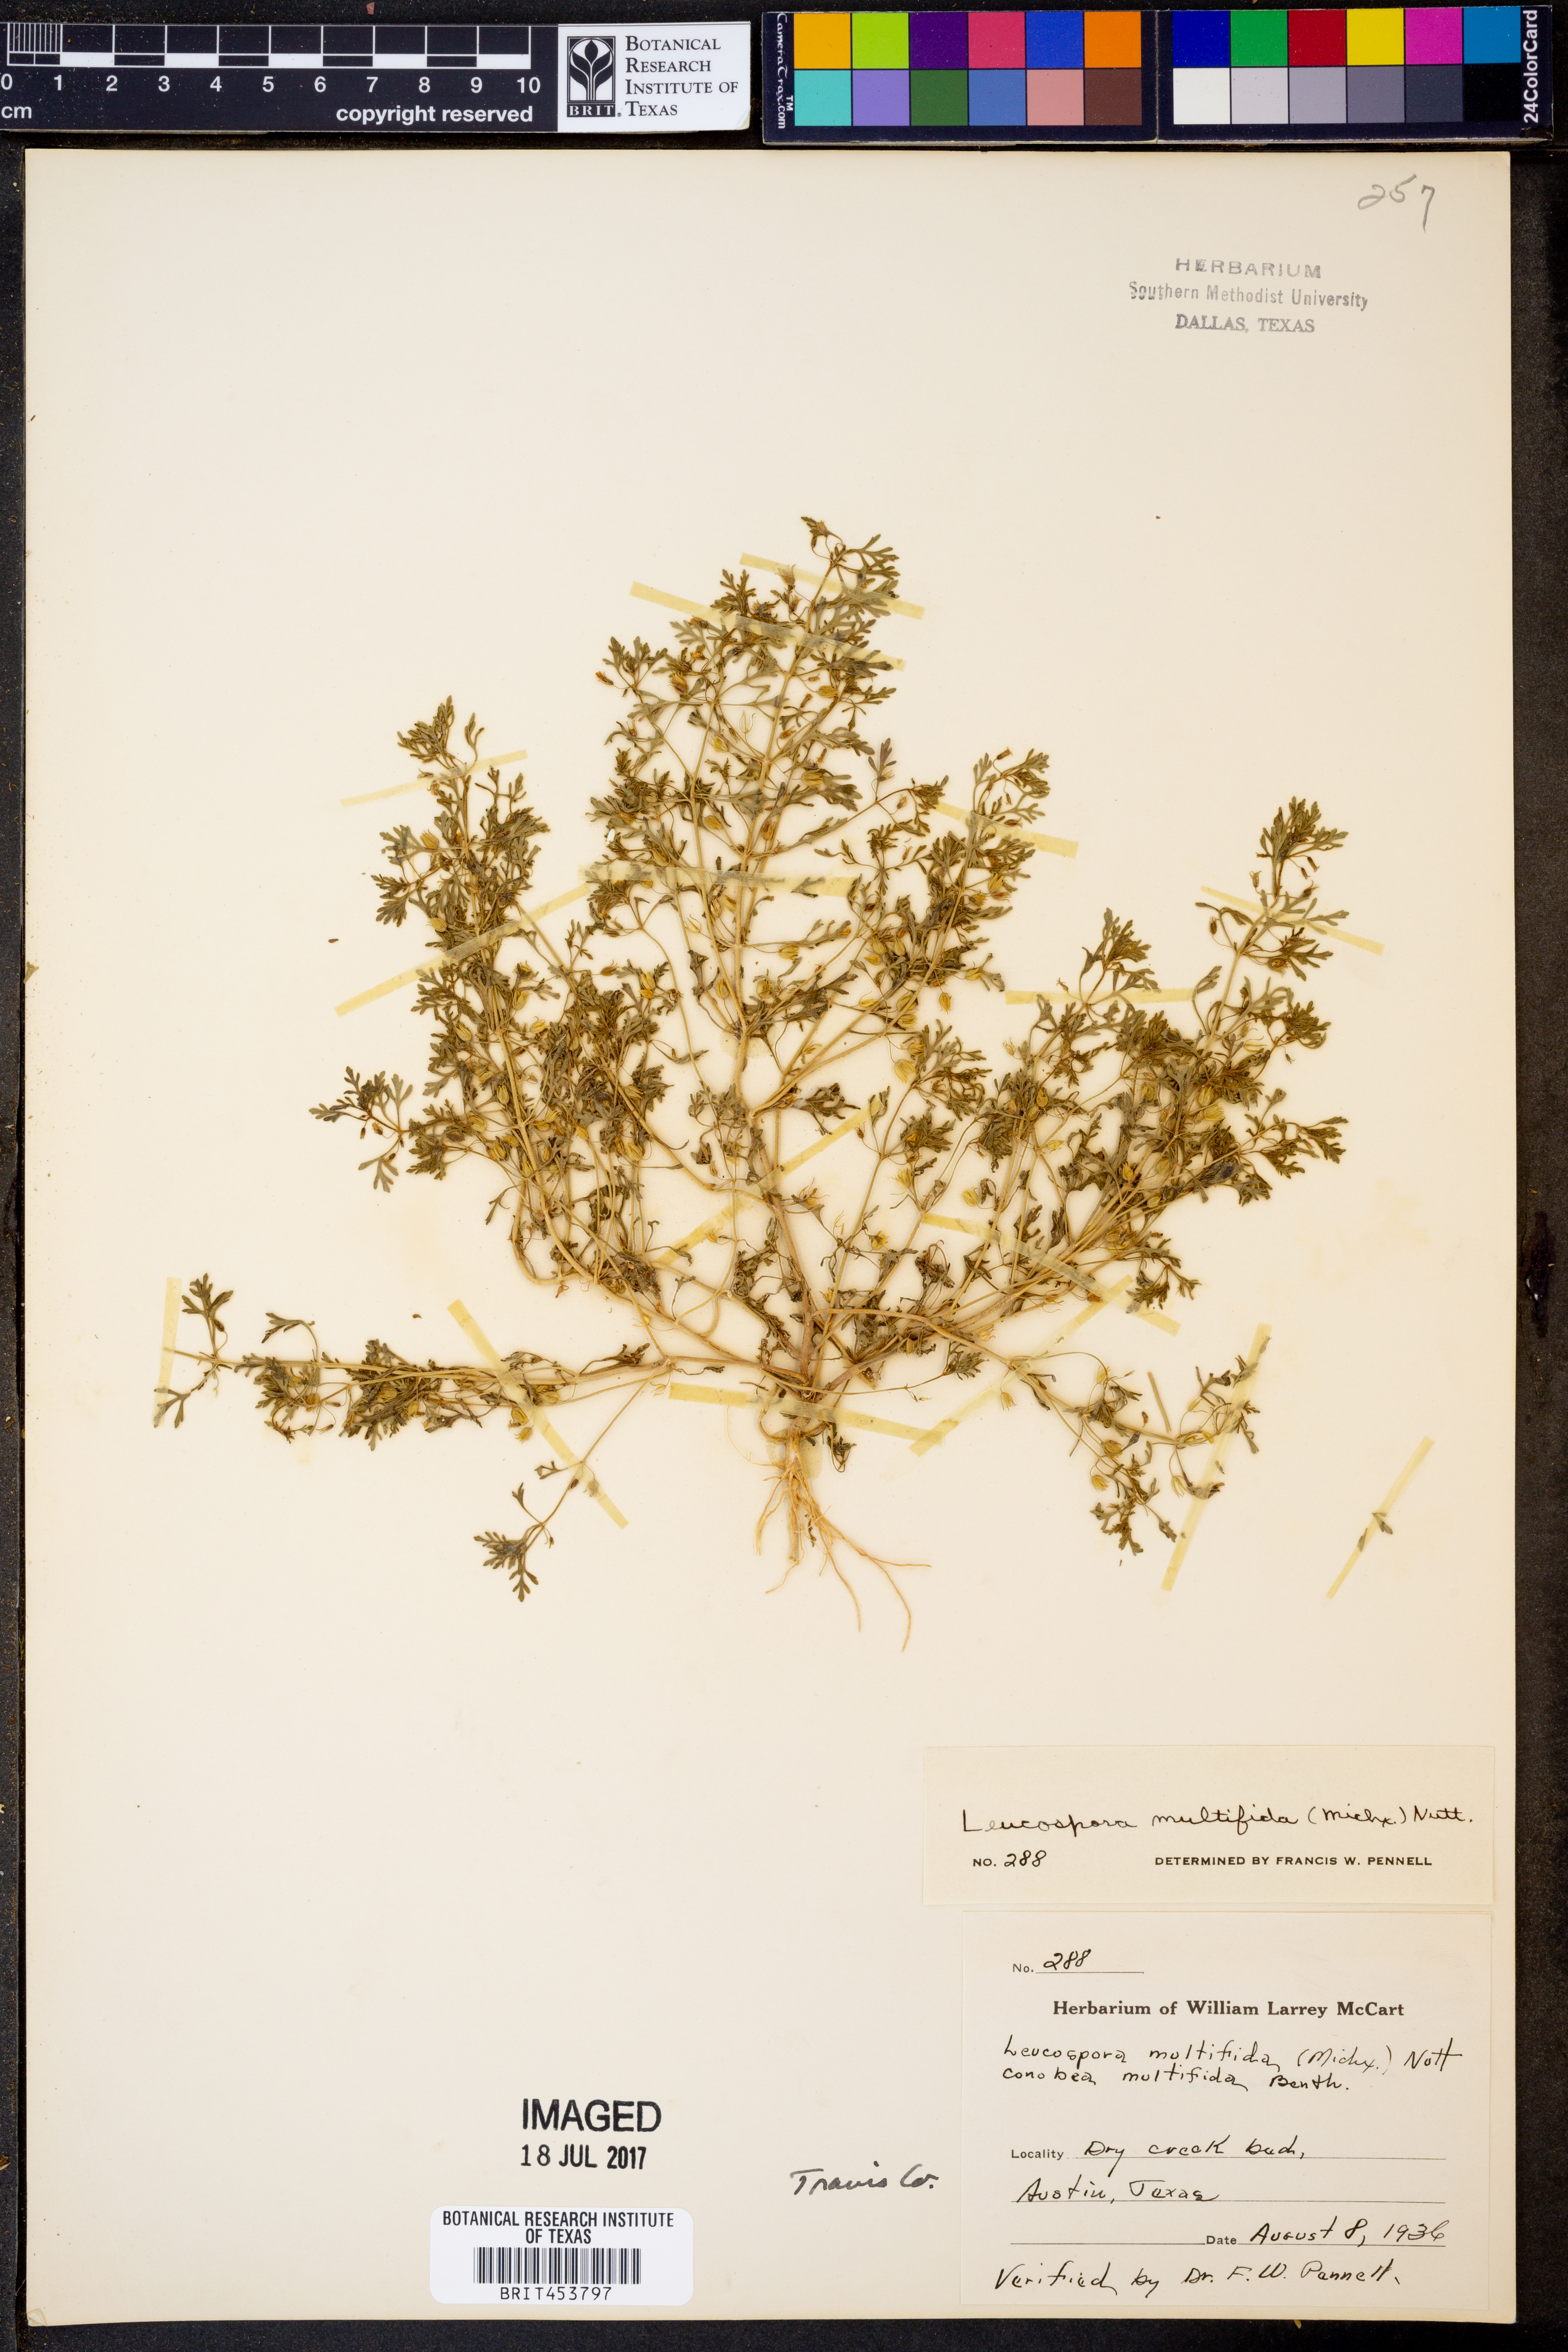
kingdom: Plantae
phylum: Tracheophyta
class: Magnoliopsida
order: Lamiales
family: Plantaginaceae
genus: Leucospora
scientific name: Leucospora multifida
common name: Narrow-leaf paleseed
